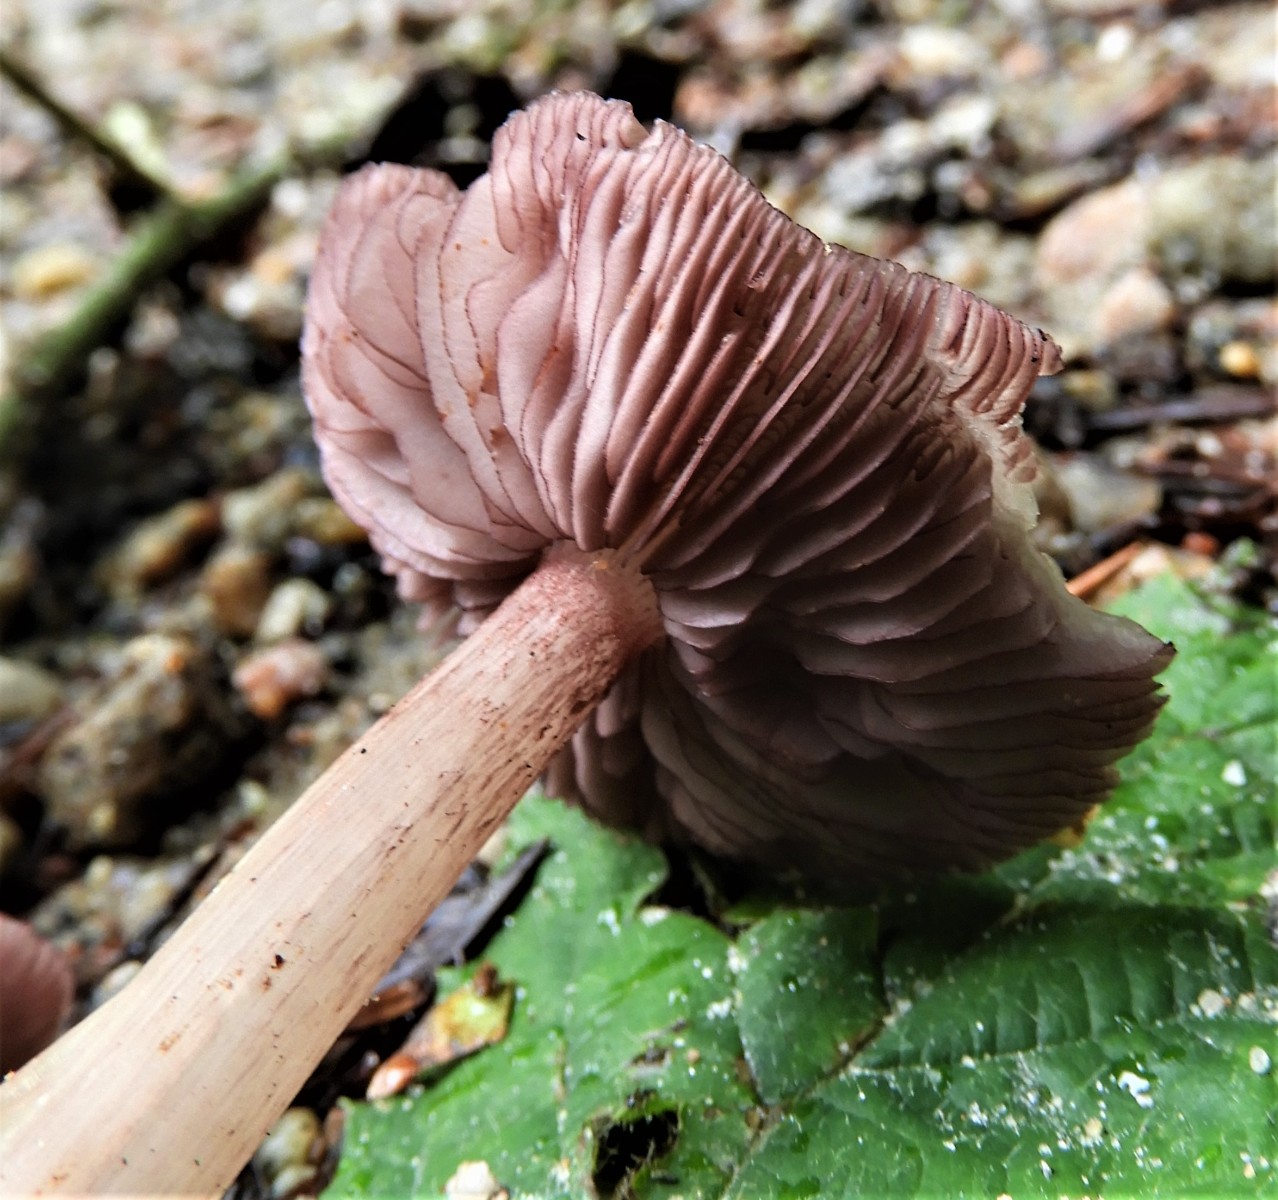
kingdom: Fungi
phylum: Basidiomycota
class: Agaricomycetes
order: Agaricales
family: Mycenaceae
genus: Mycena
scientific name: Mycena pelianthina
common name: mørkbladet huesvamp
